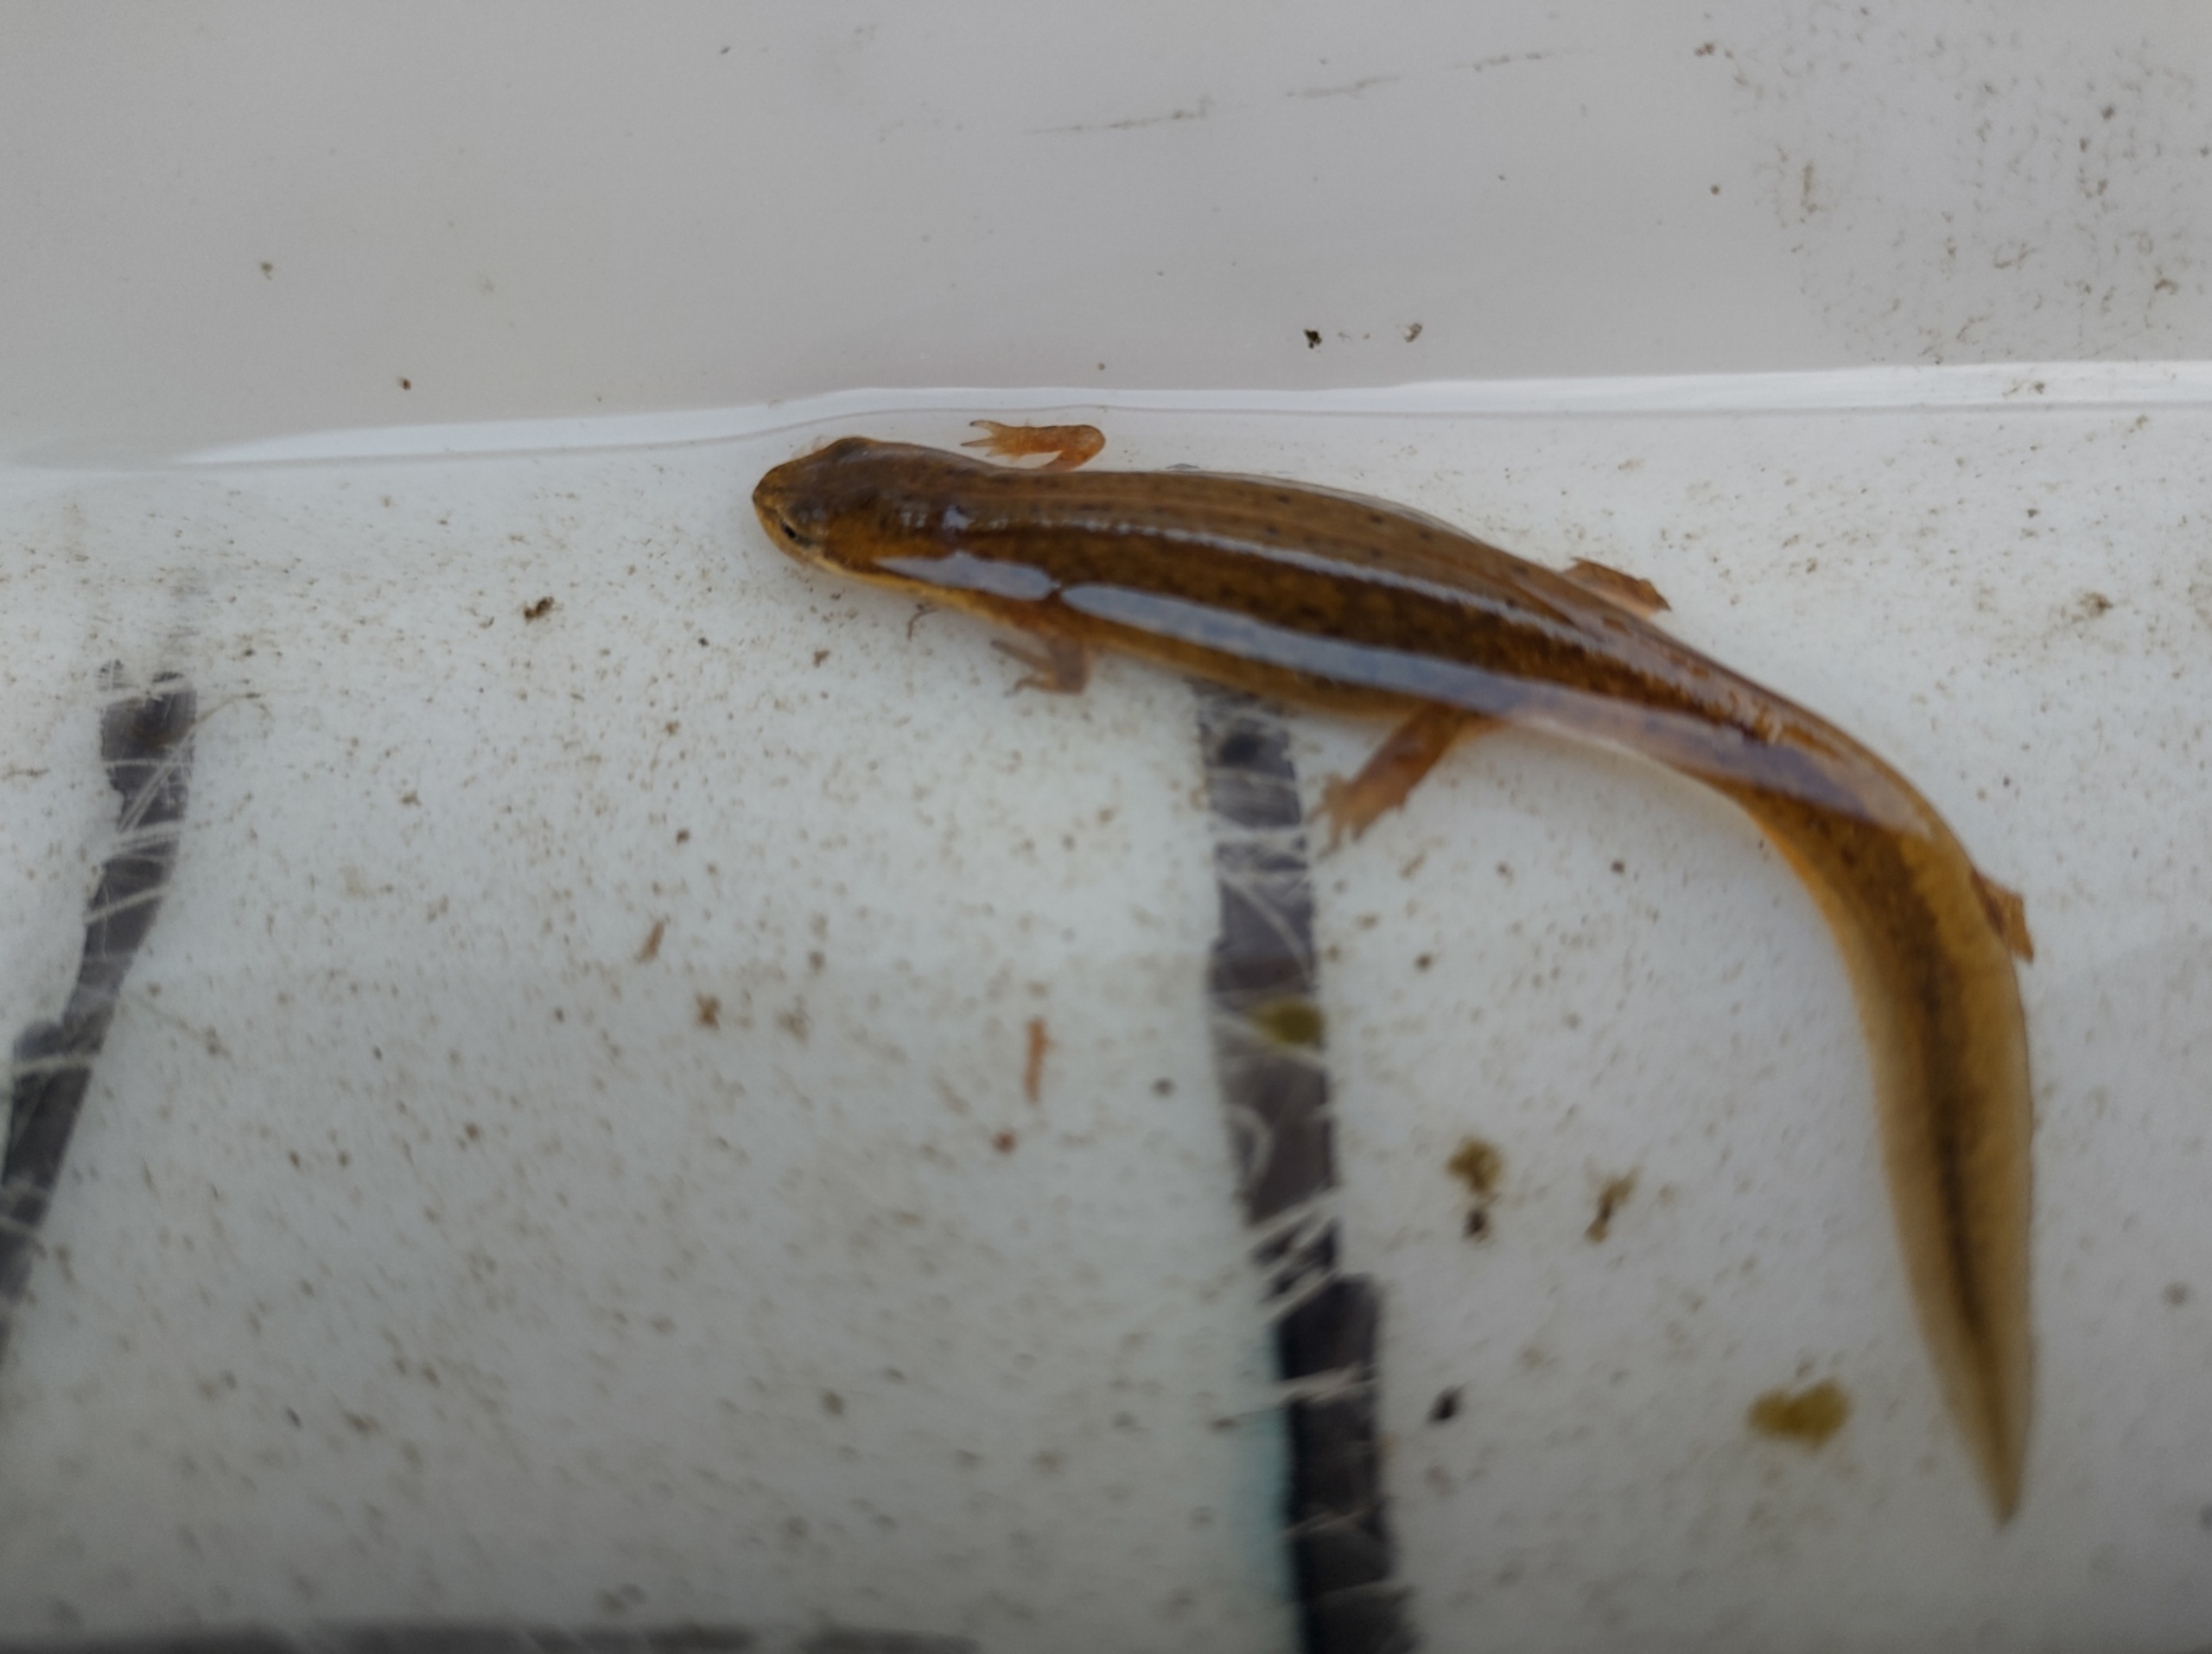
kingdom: Animalia
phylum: Chordata
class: Amphibia
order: Caudata
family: Salamandridae
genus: Lissotriton
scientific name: Lissotriton vulgaris
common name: Lille vandsalamander
